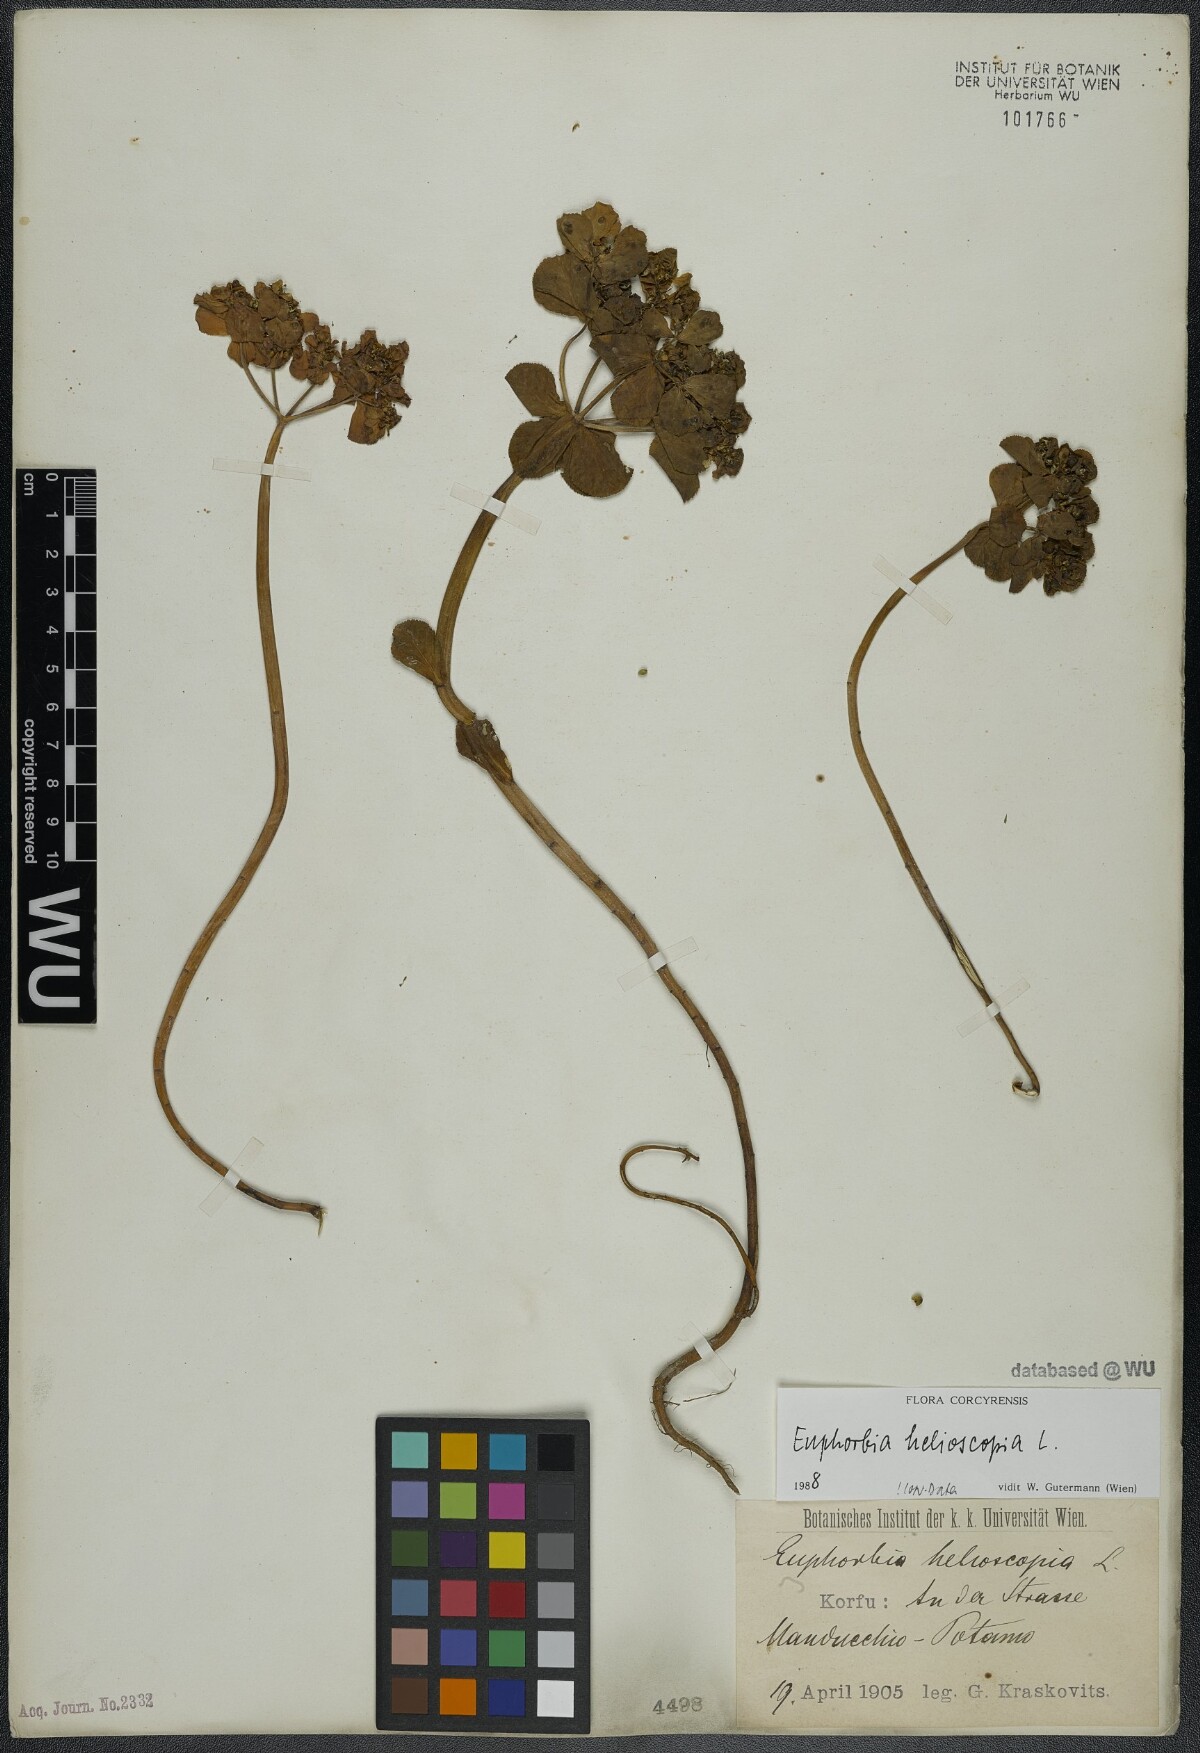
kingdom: Plantae
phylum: Tracheophyta
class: Magnoliopsida
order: Malpighiales
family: Euphorbiaceae
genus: Euphorbia
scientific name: Euphorbia helioscopia
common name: Sun spurge
